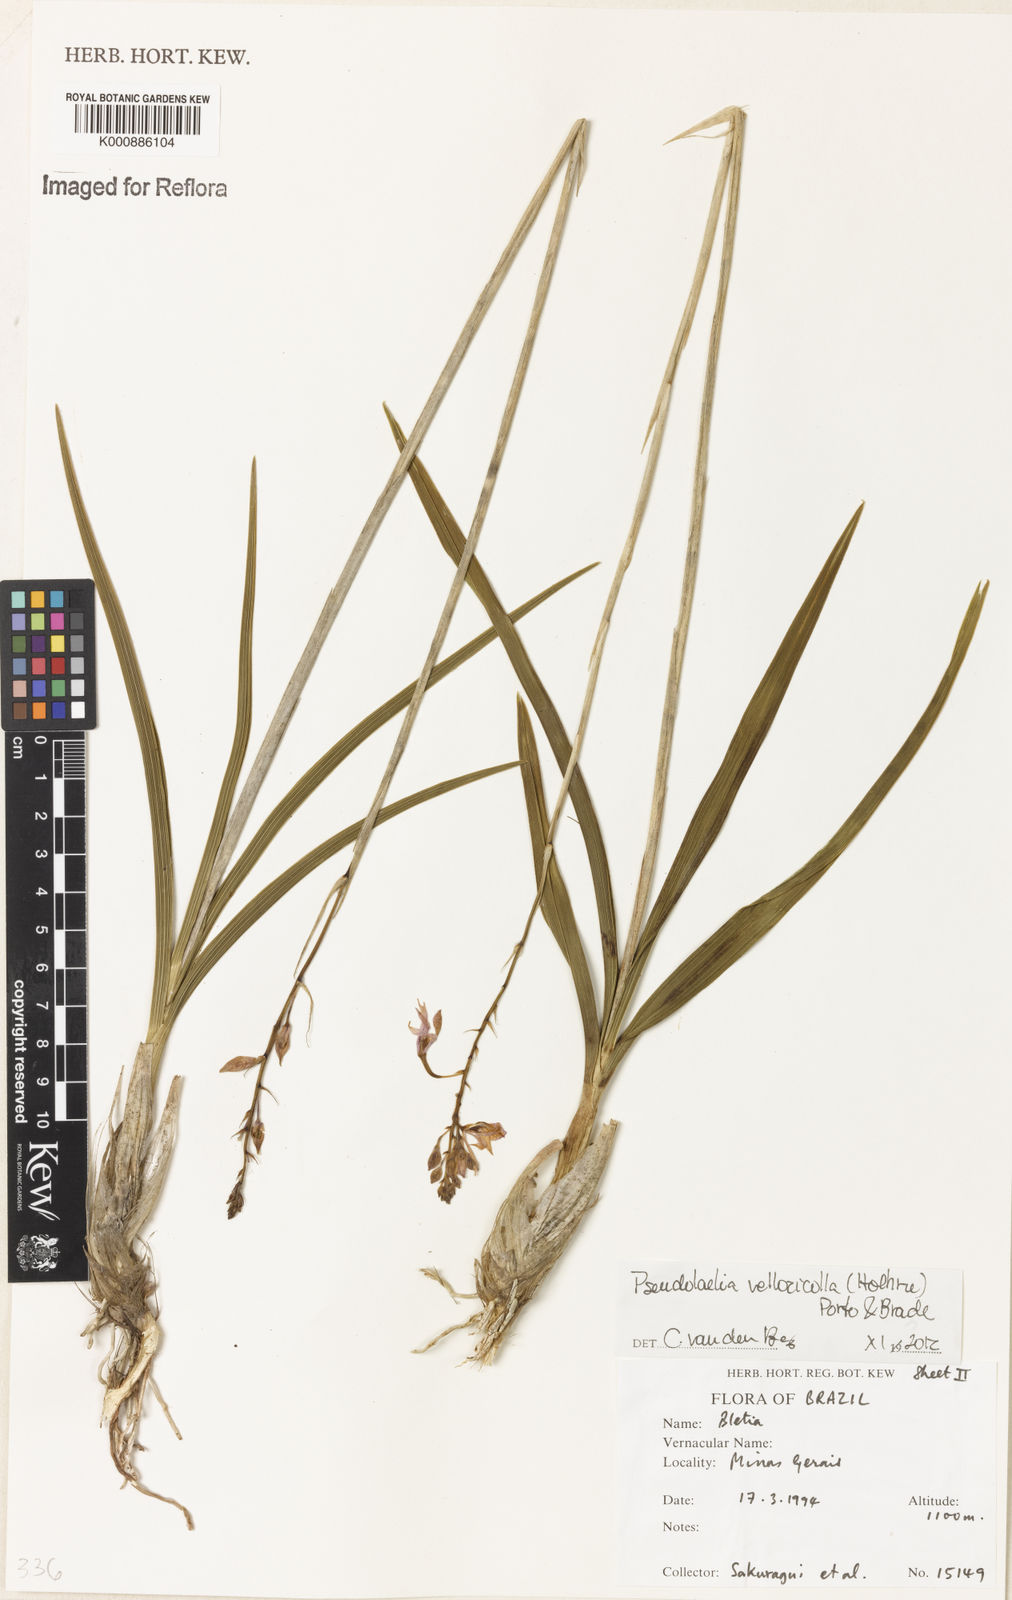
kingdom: Plantae
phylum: Tracheophyta
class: Liliopsida
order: Asparagales
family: Orchidaceae
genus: Pseudolaelia
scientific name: Pseudolaelia vellozicola
